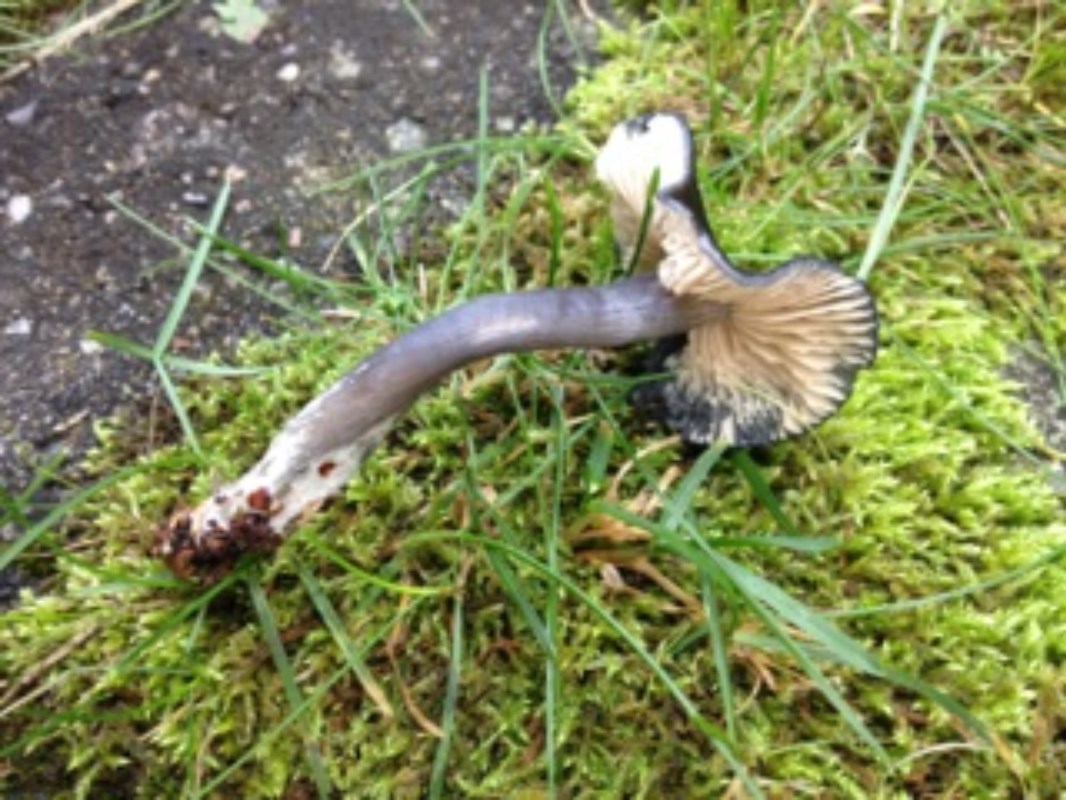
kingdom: Fungi
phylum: Basidiomycota
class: Agaricomycetes
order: Agaricales
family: Entolomataceae
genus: Entocybe
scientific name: Entocybe nitida
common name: stålblå rødblad
